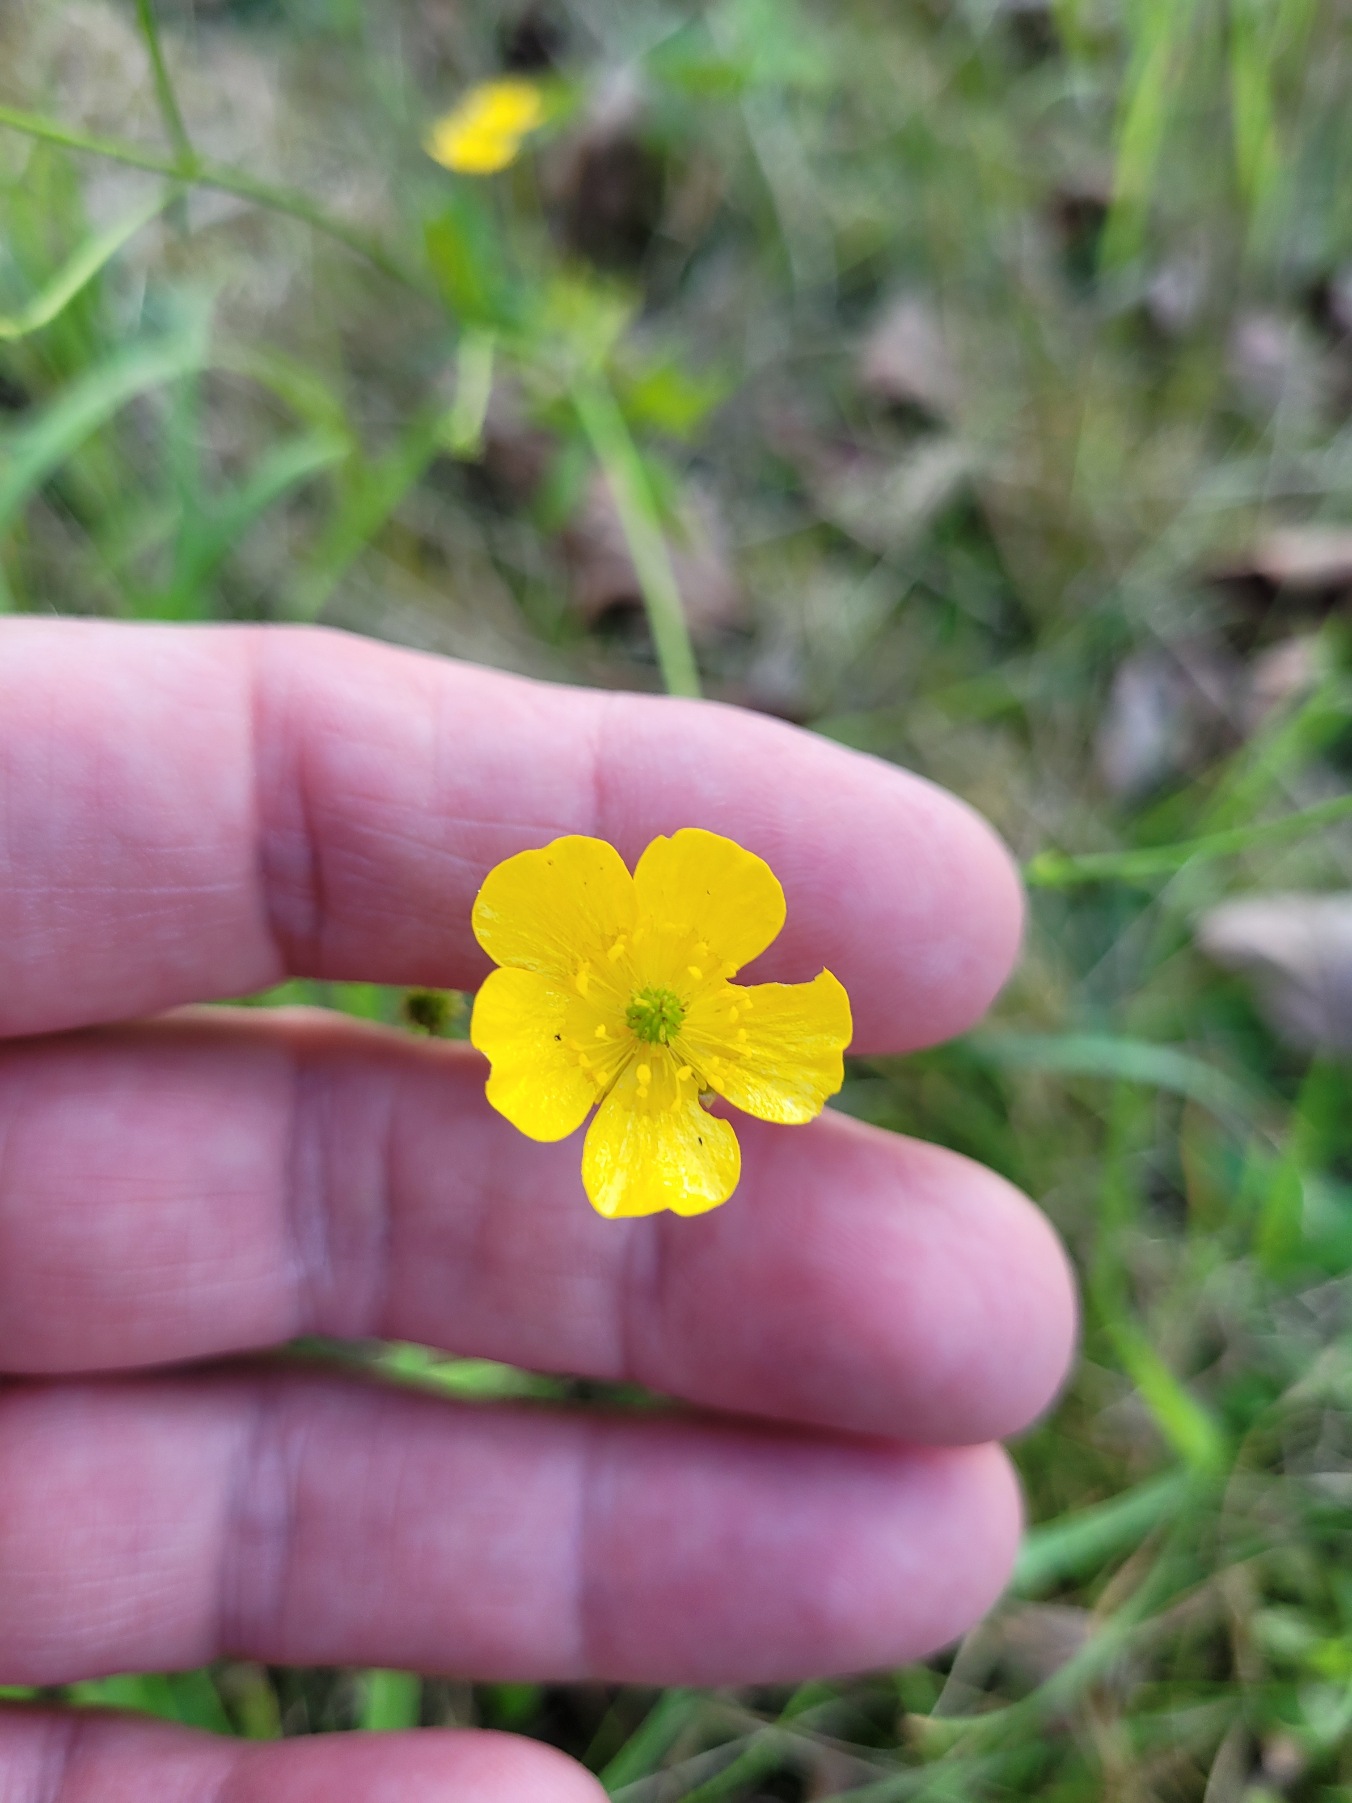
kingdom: Plantae
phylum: Tracheophyta
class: Magnoliopsida
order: Ranunculales
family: Ranunculaceae
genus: Ranunculus
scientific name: Ranunculus acris
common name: Bidende ranunkel
